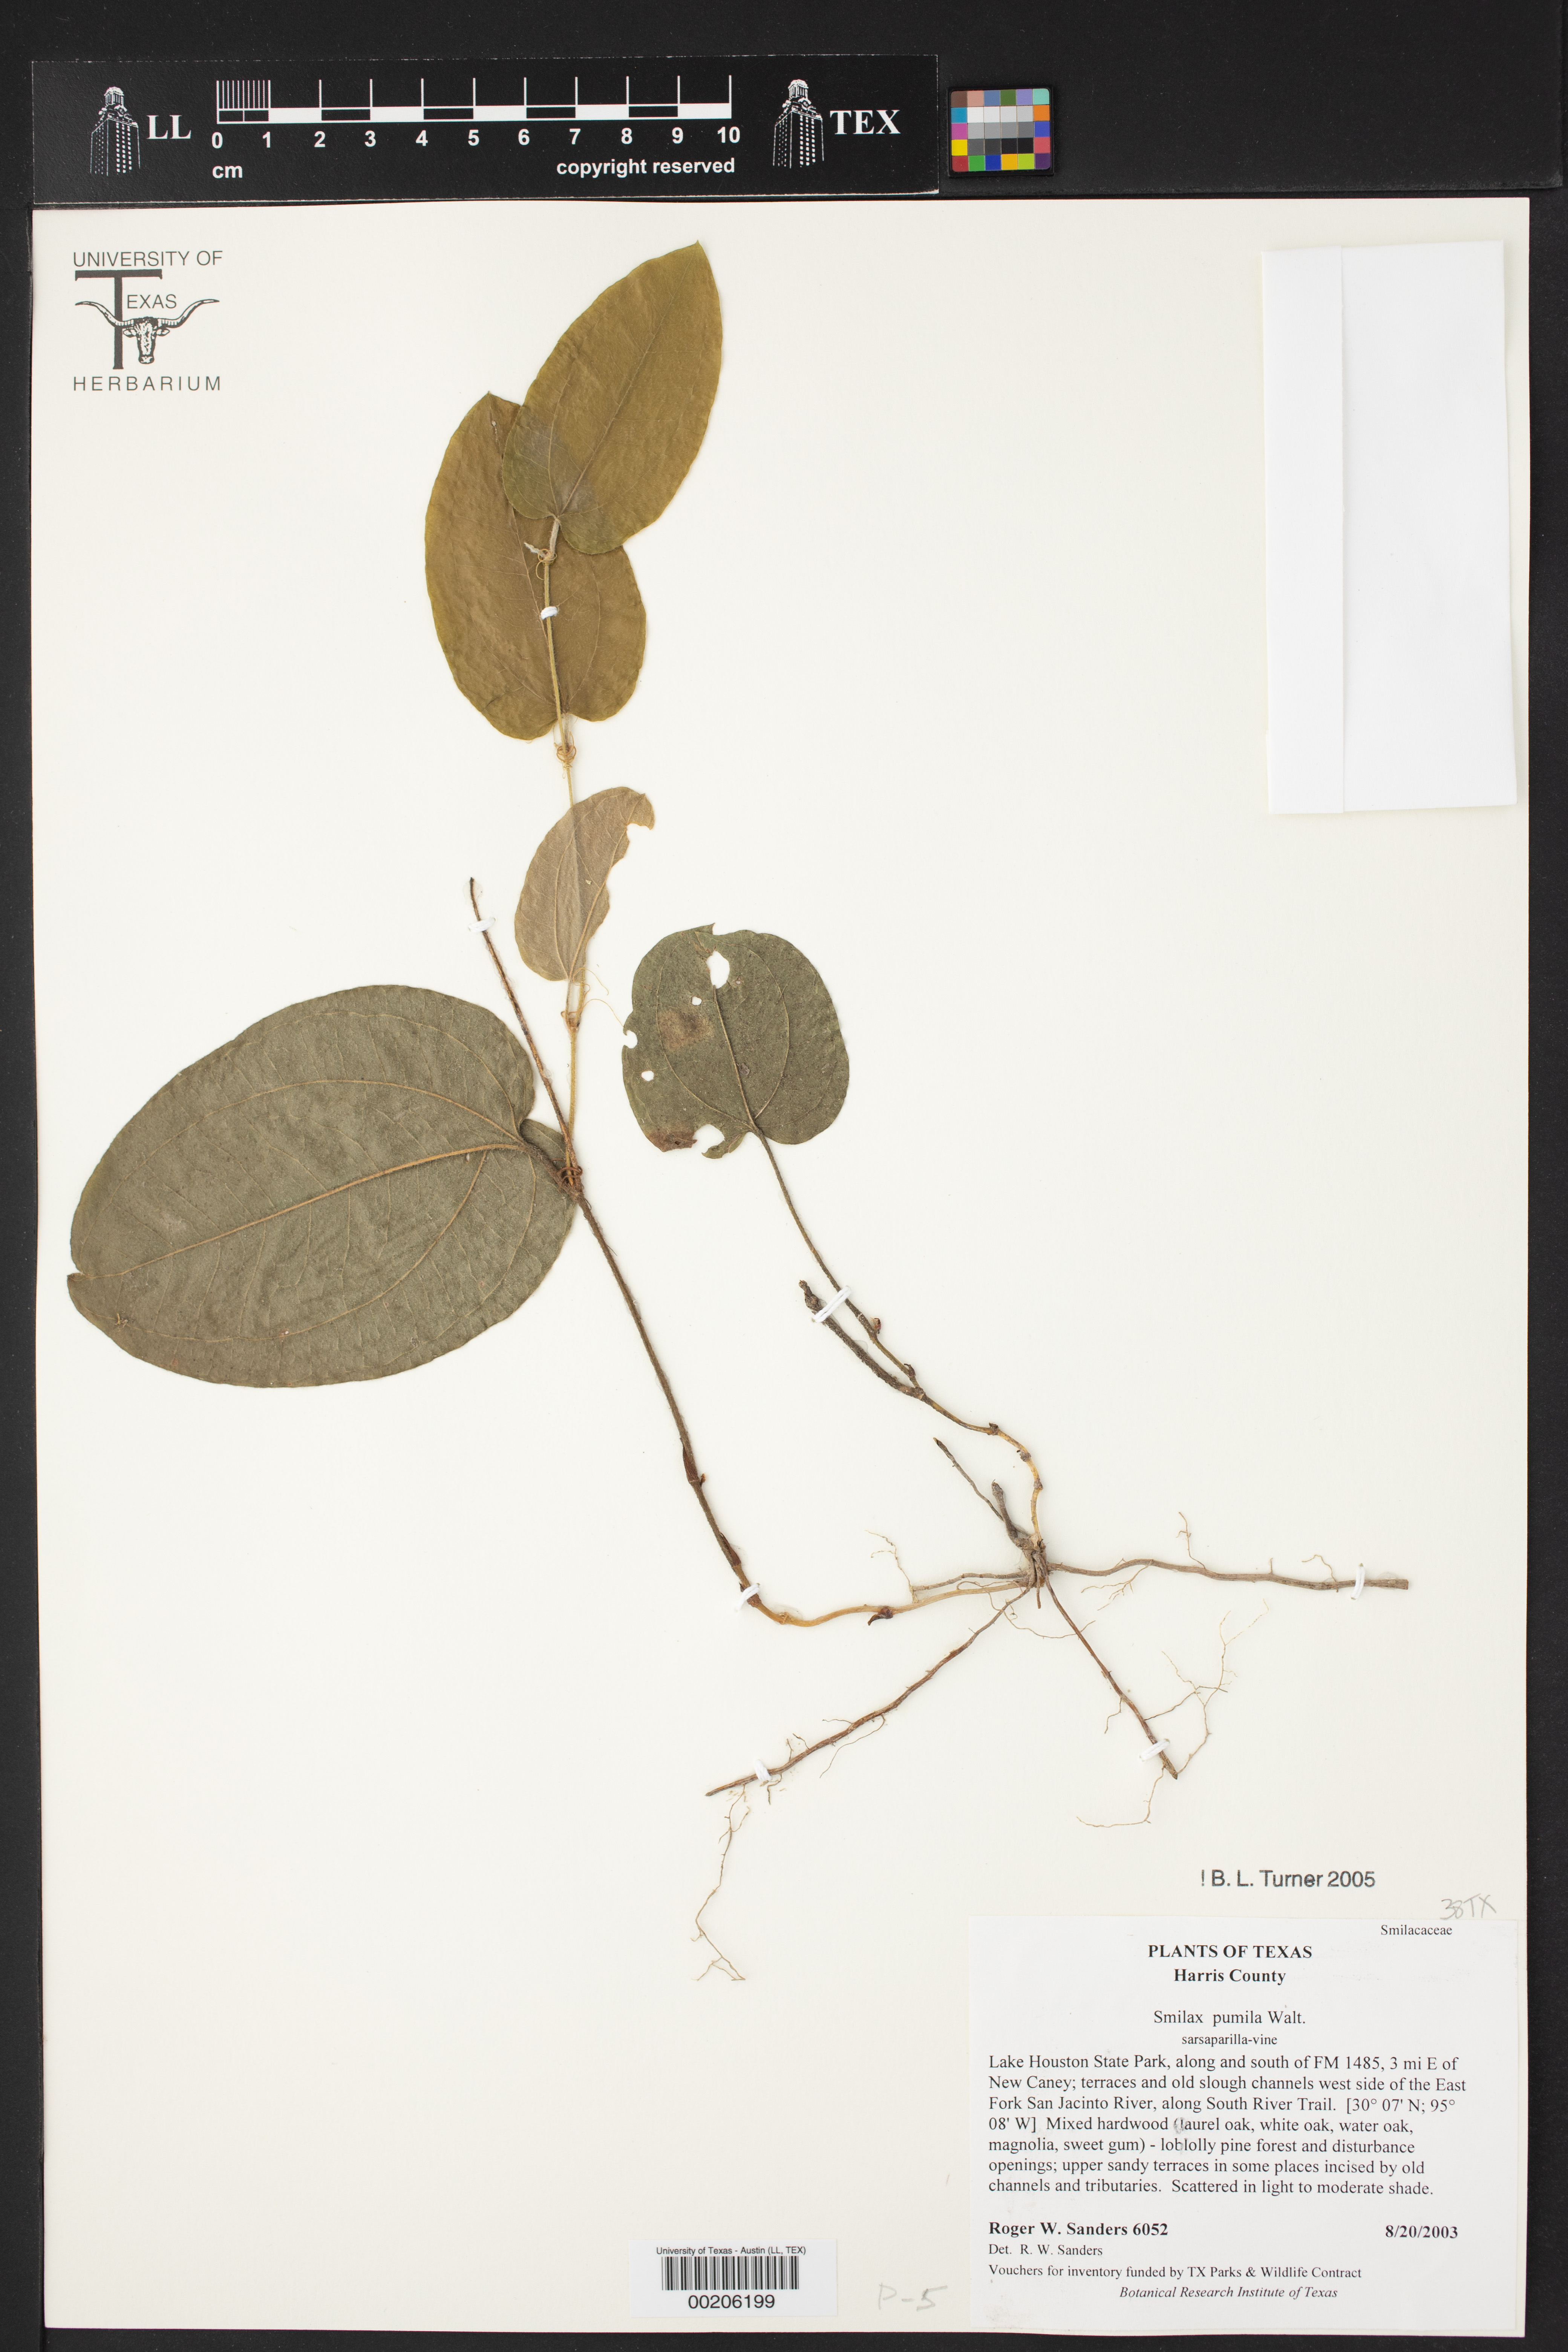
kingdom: Plantae
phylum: Tracheophyta
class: Liliopsida
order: Liliales
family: Smilacaceae
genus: Smilax
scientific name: Smilax pumila
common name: Sarsaparilla-vine
